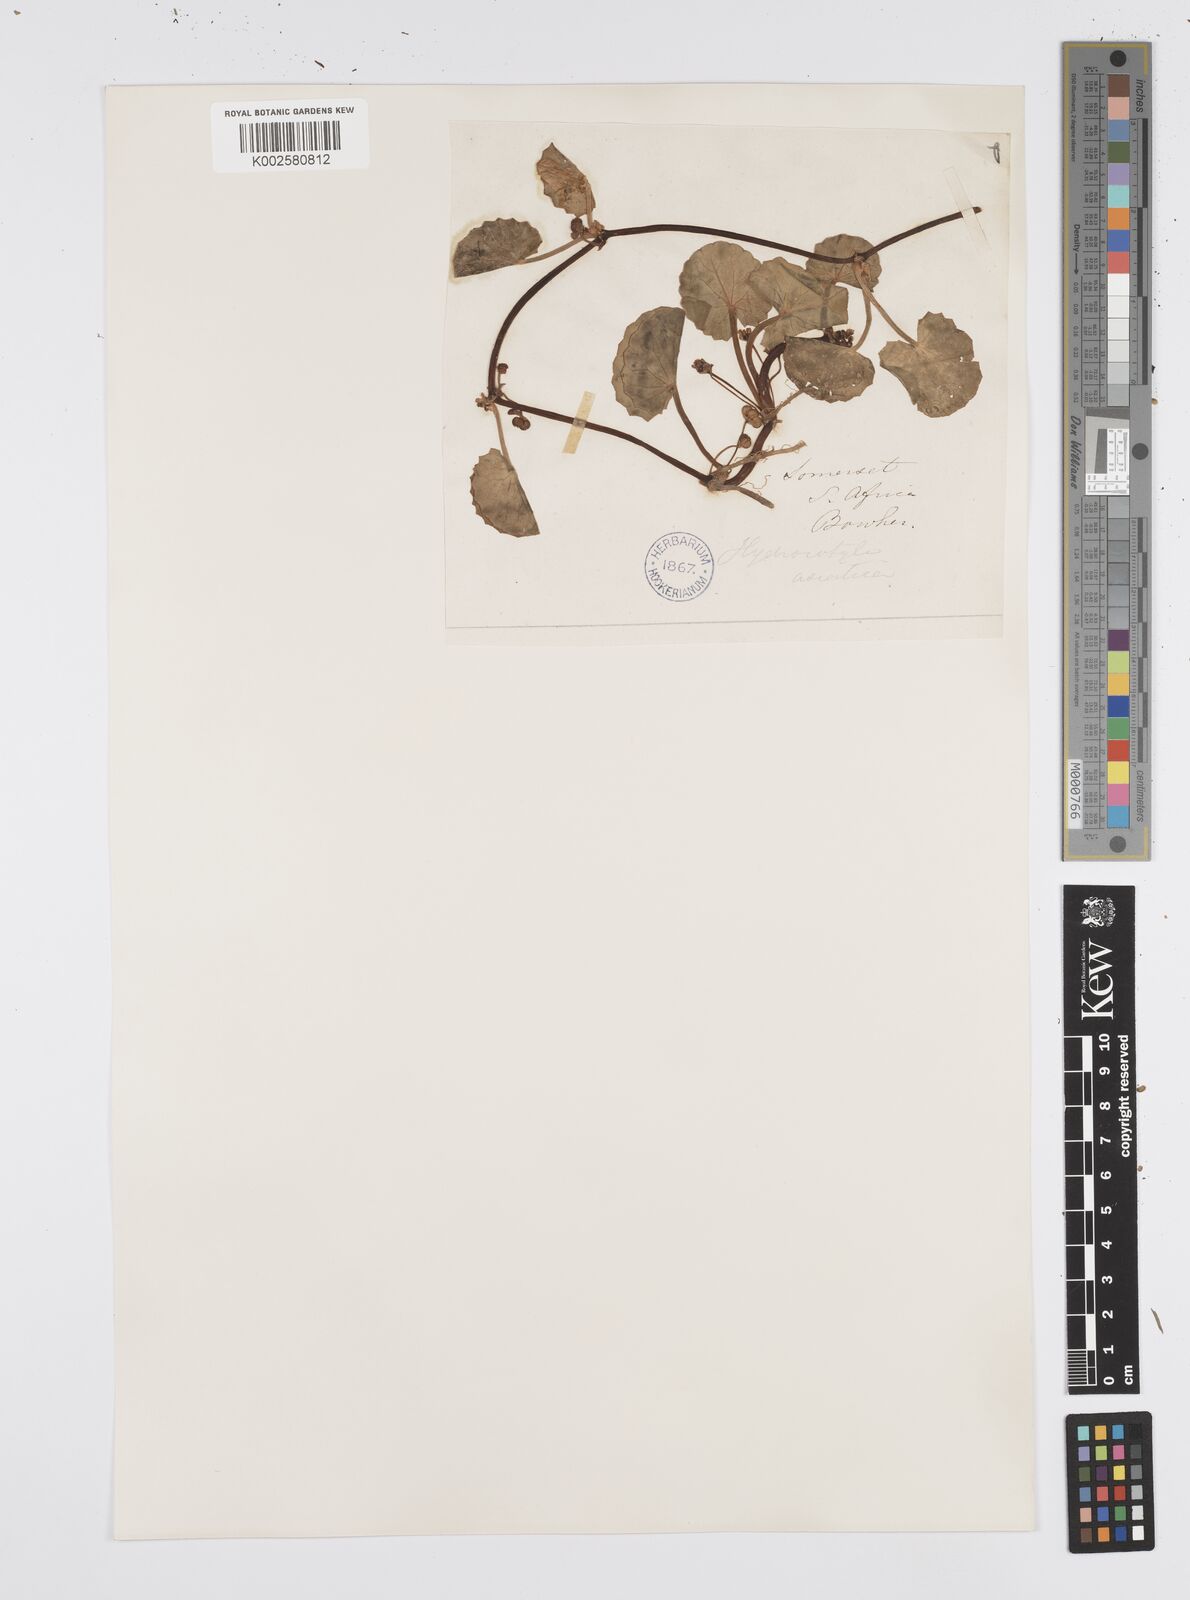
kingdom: Plantae
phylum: Tracheophyta
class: Magnoliopsida
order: Apiales
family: Apiaceae
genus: Centella
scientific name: Centella coriacea
